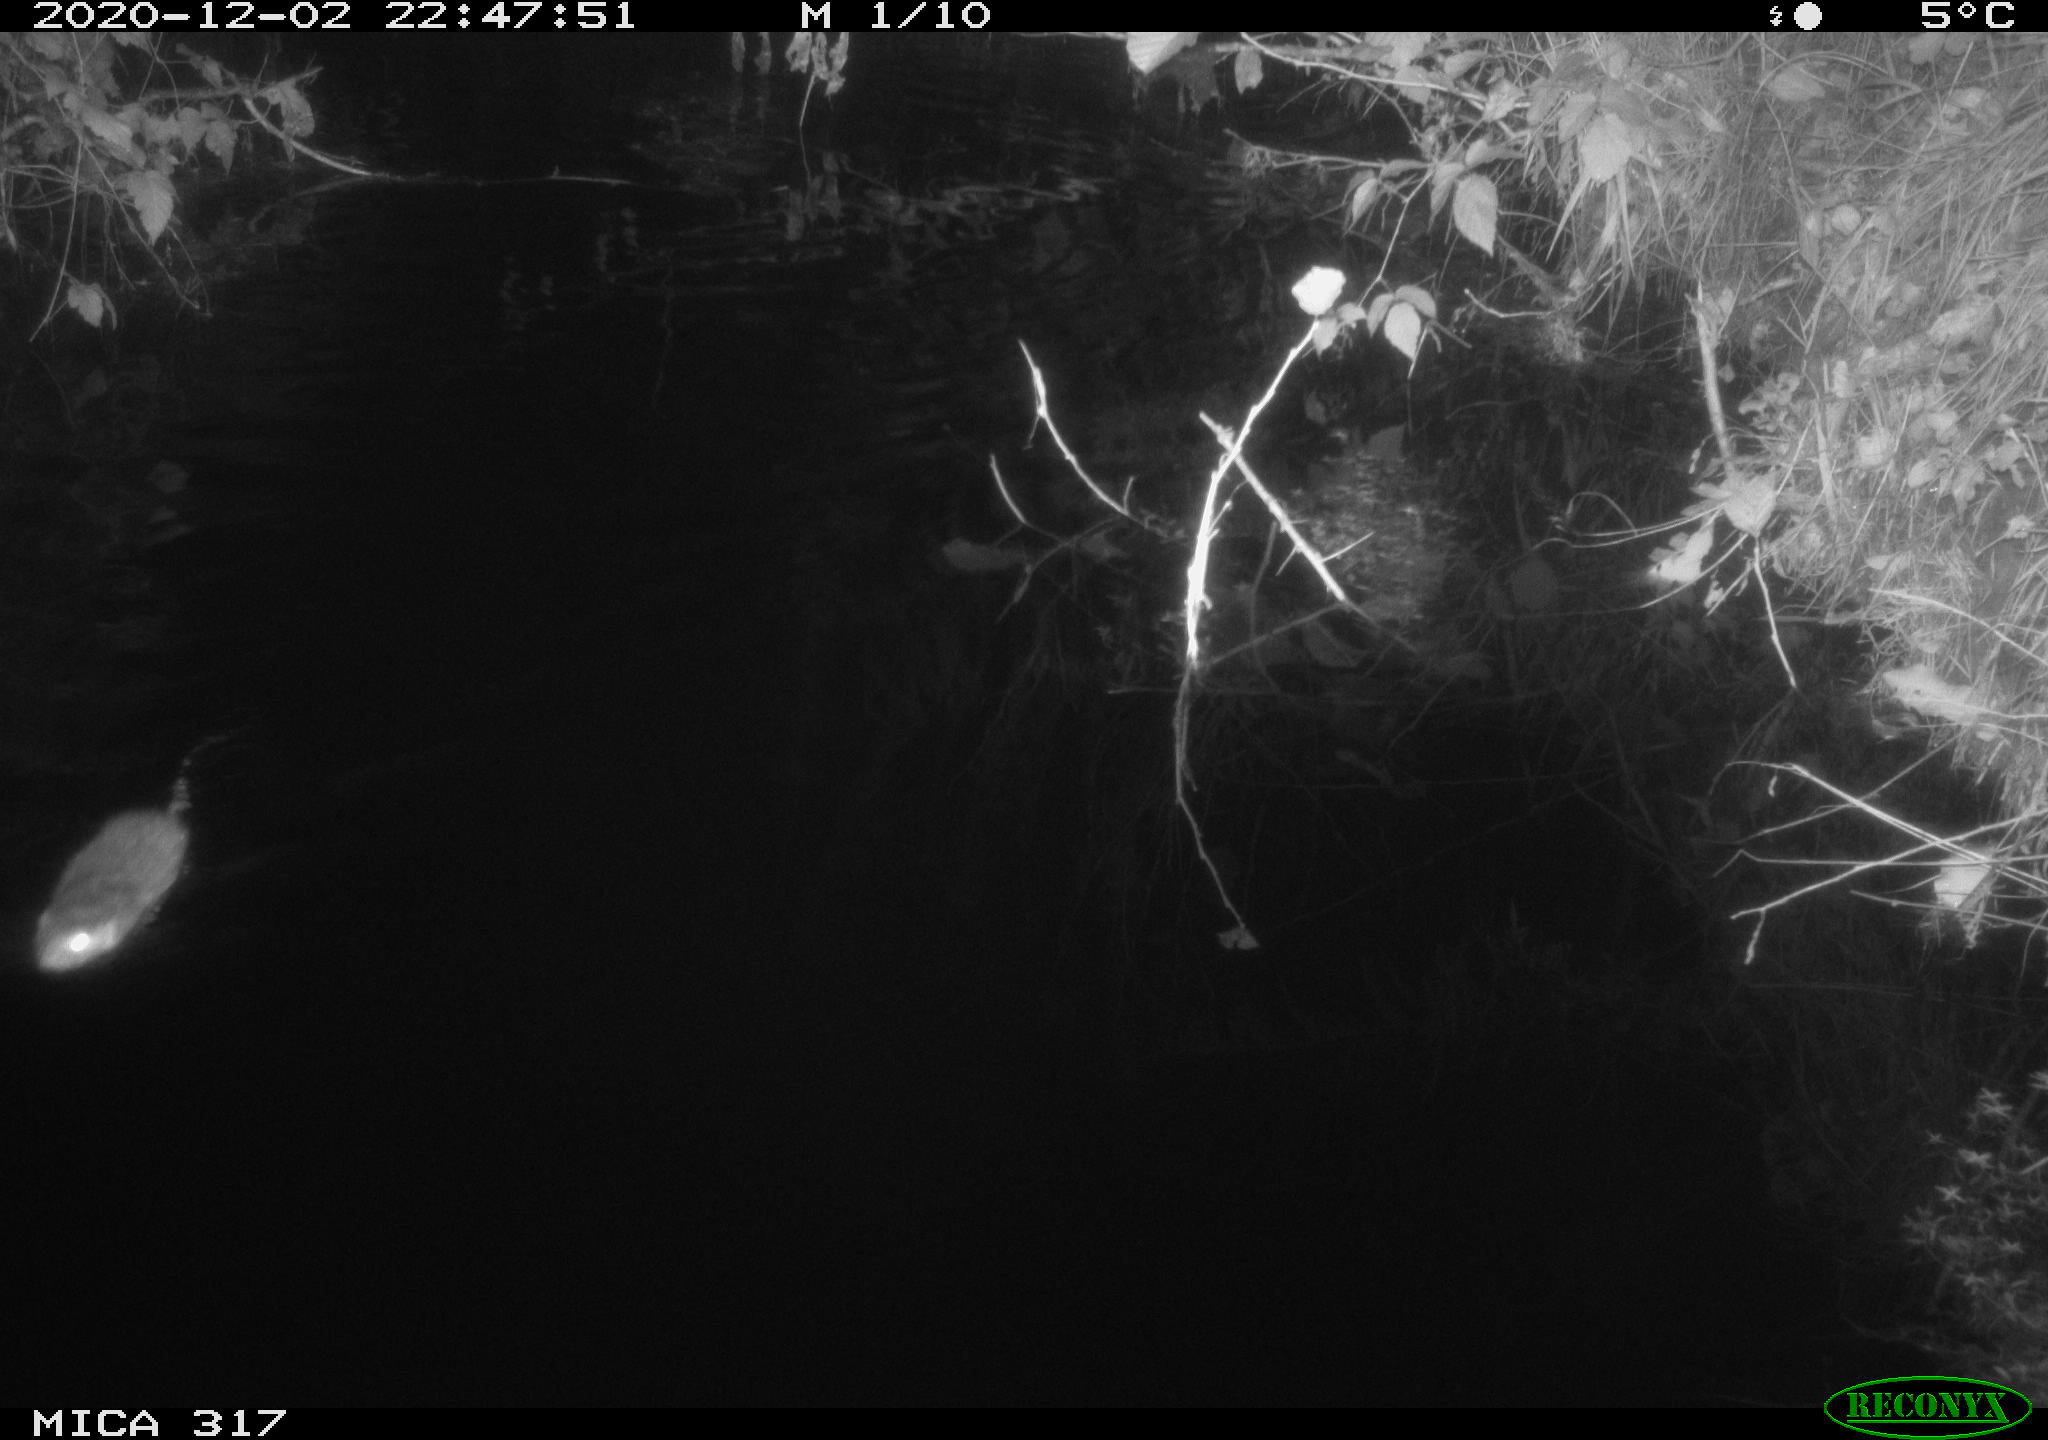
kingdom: Animalia
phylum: Chordata
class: Mammalia
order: Rodentia
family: Muridae
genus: Rattus
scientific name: Rattus norvegicus
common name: Brown rat
